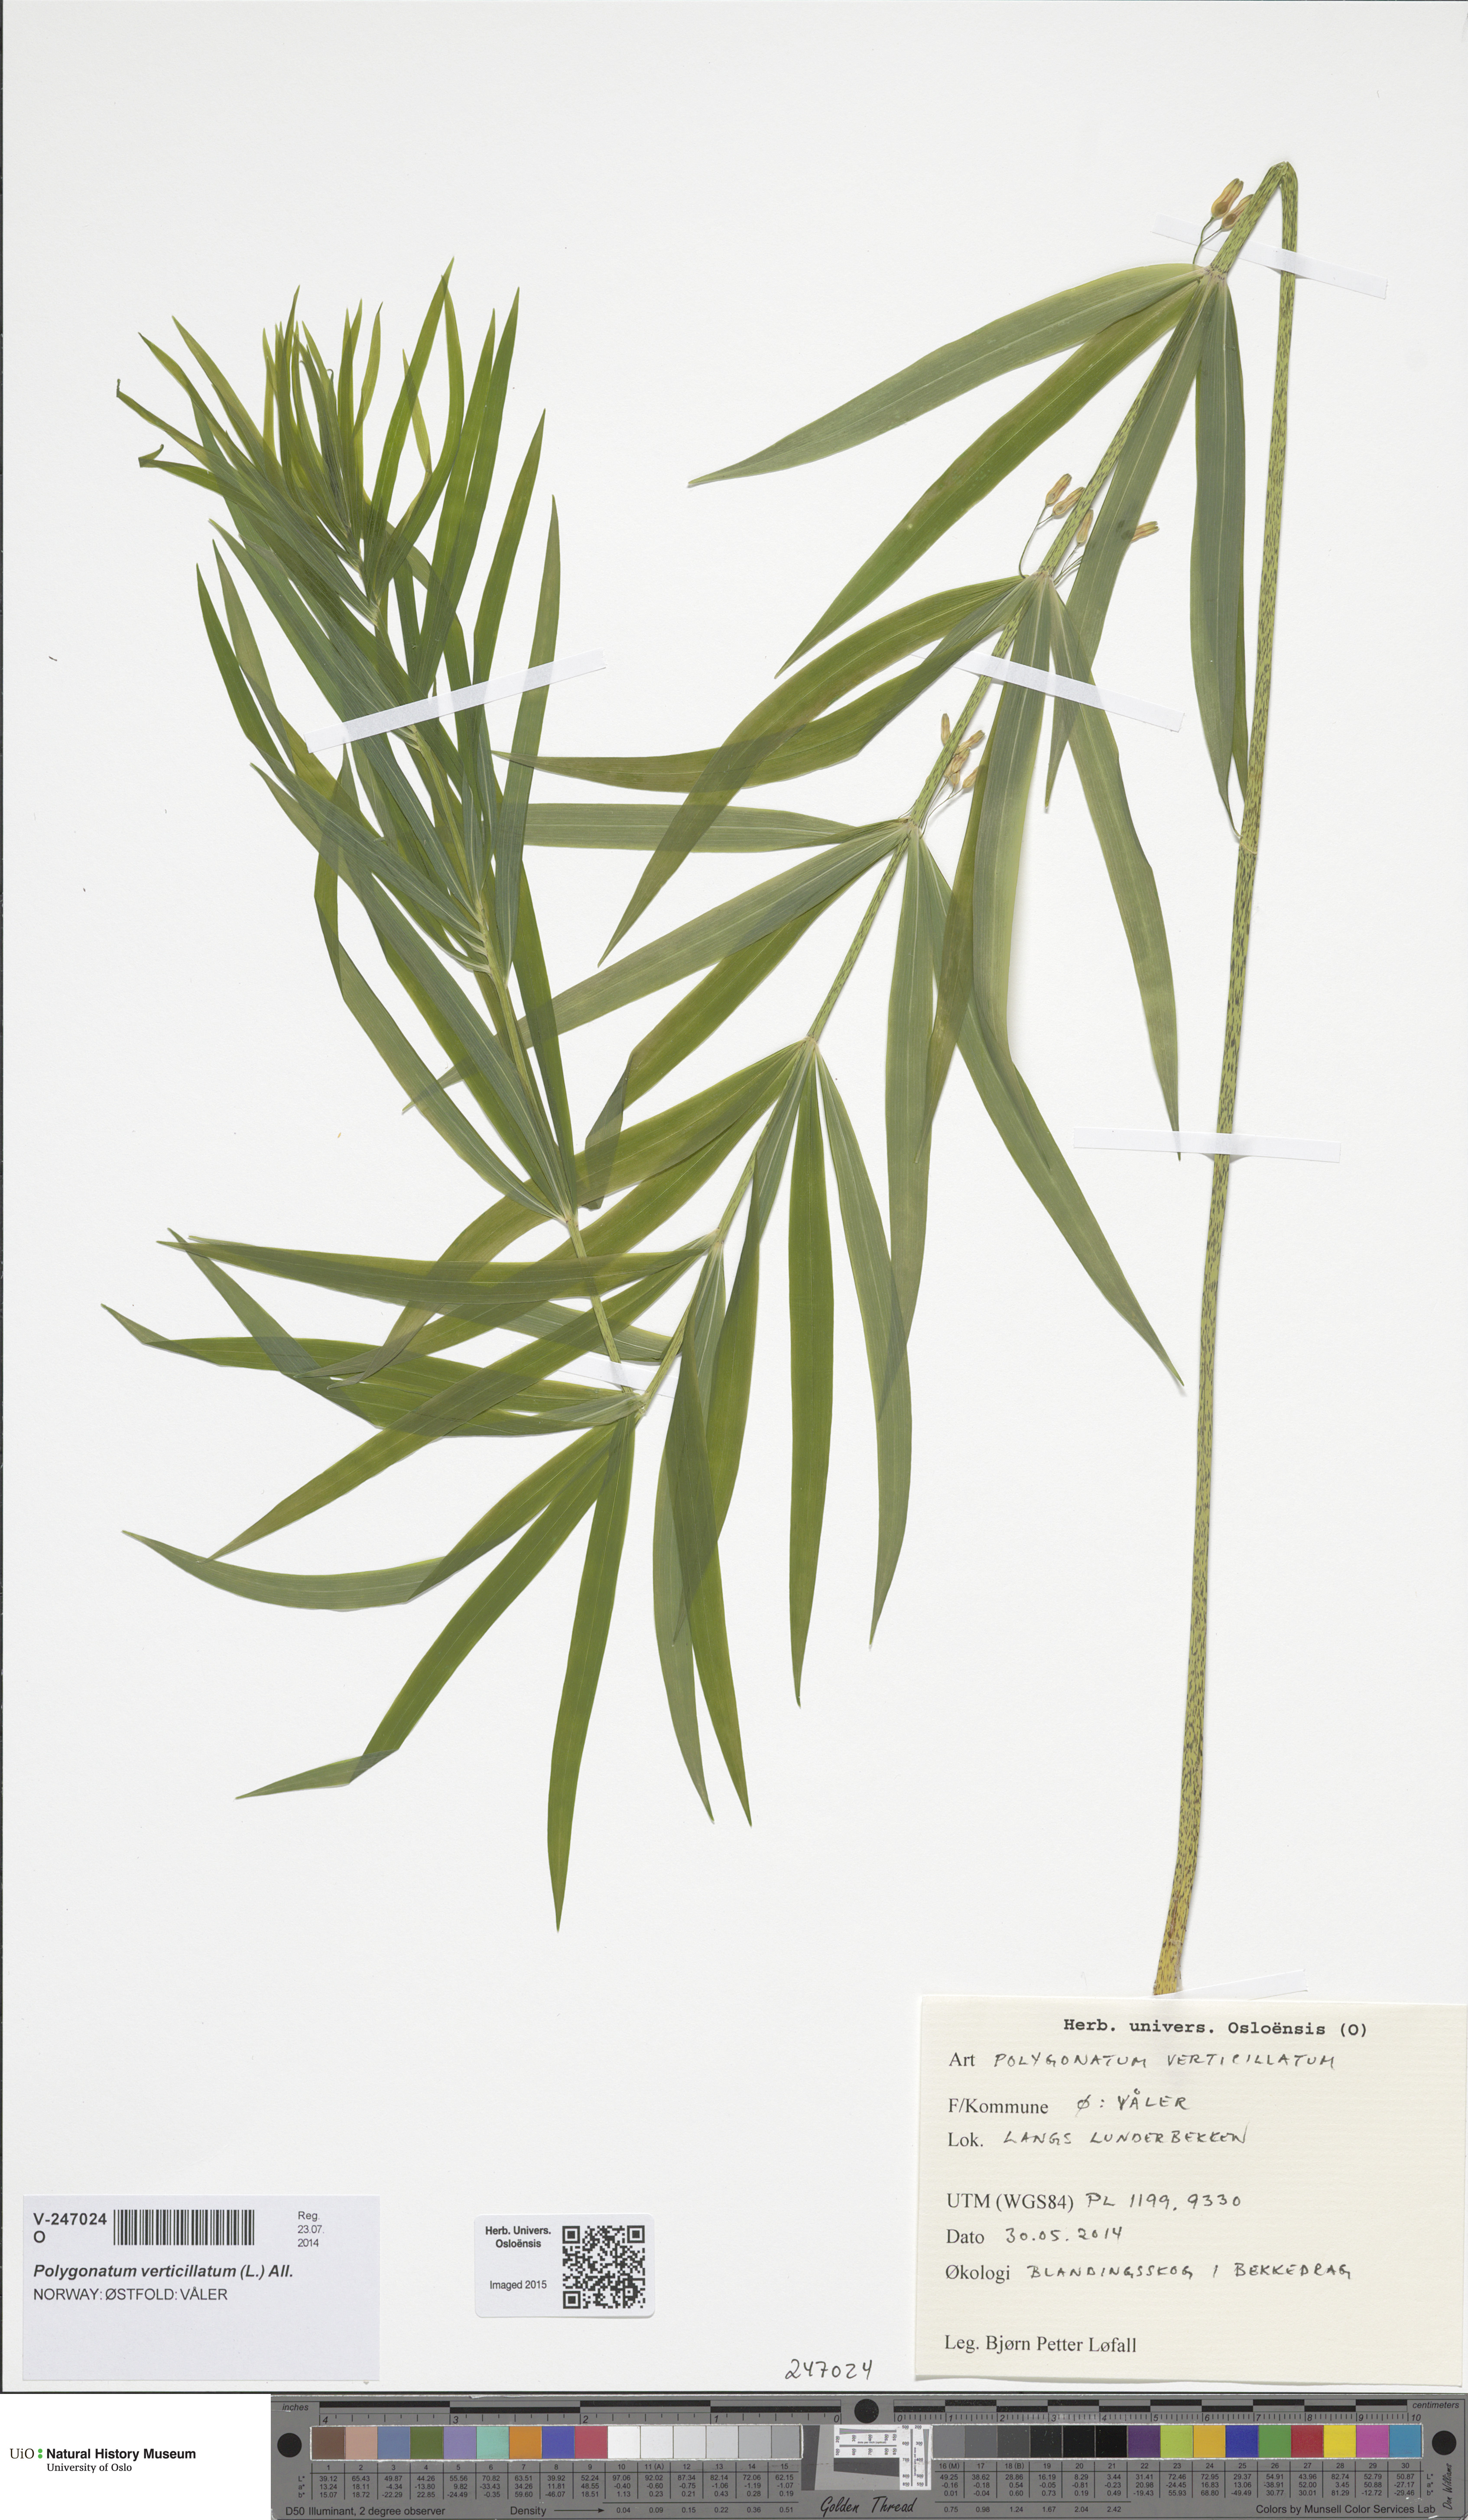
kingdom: Plantae
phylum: Tracheophyta
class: Liliopsida
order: Asparagales
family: Asparagaceae
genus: Polygonatum
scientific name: Polygonatum verticillatum
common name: Whorled solomon's-seal
